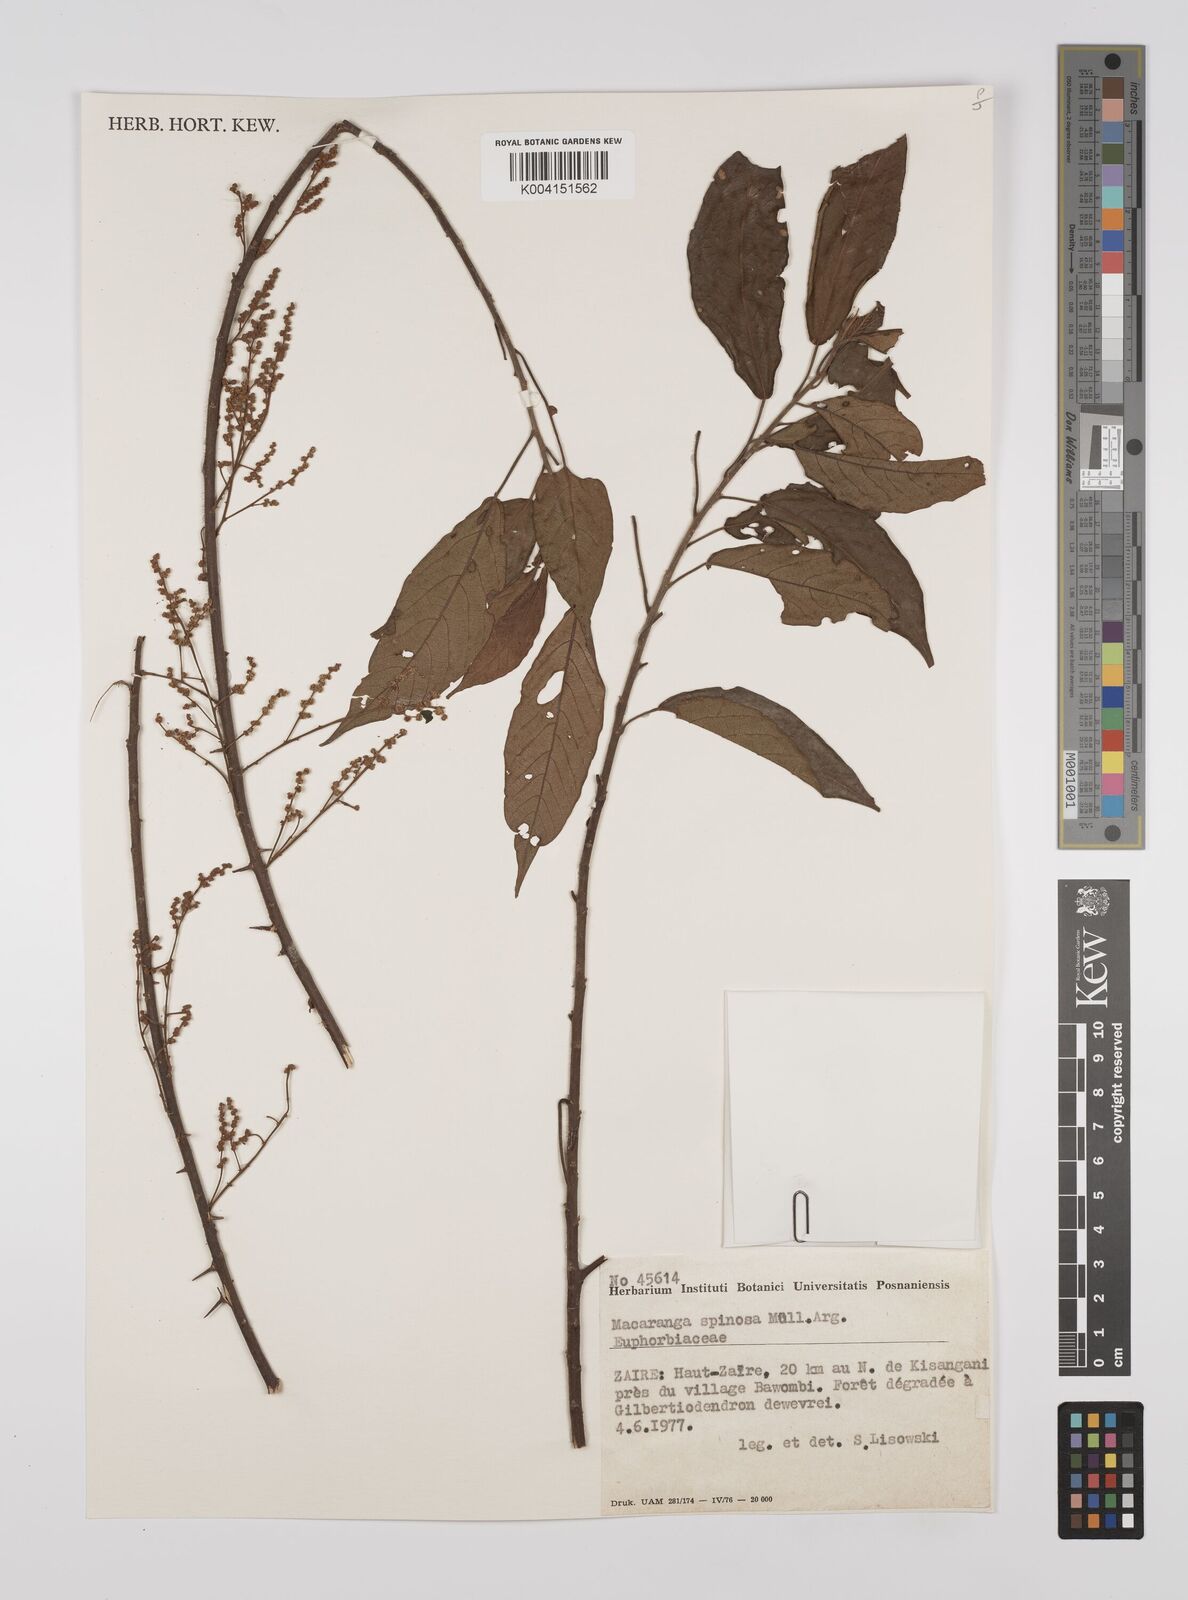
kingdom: Plantae
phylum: Tracheophyta
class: Magnoliopsida
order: Malpighiales
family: Euphorbiaceae
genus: Macaranga
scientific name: Macaranga spinosa
